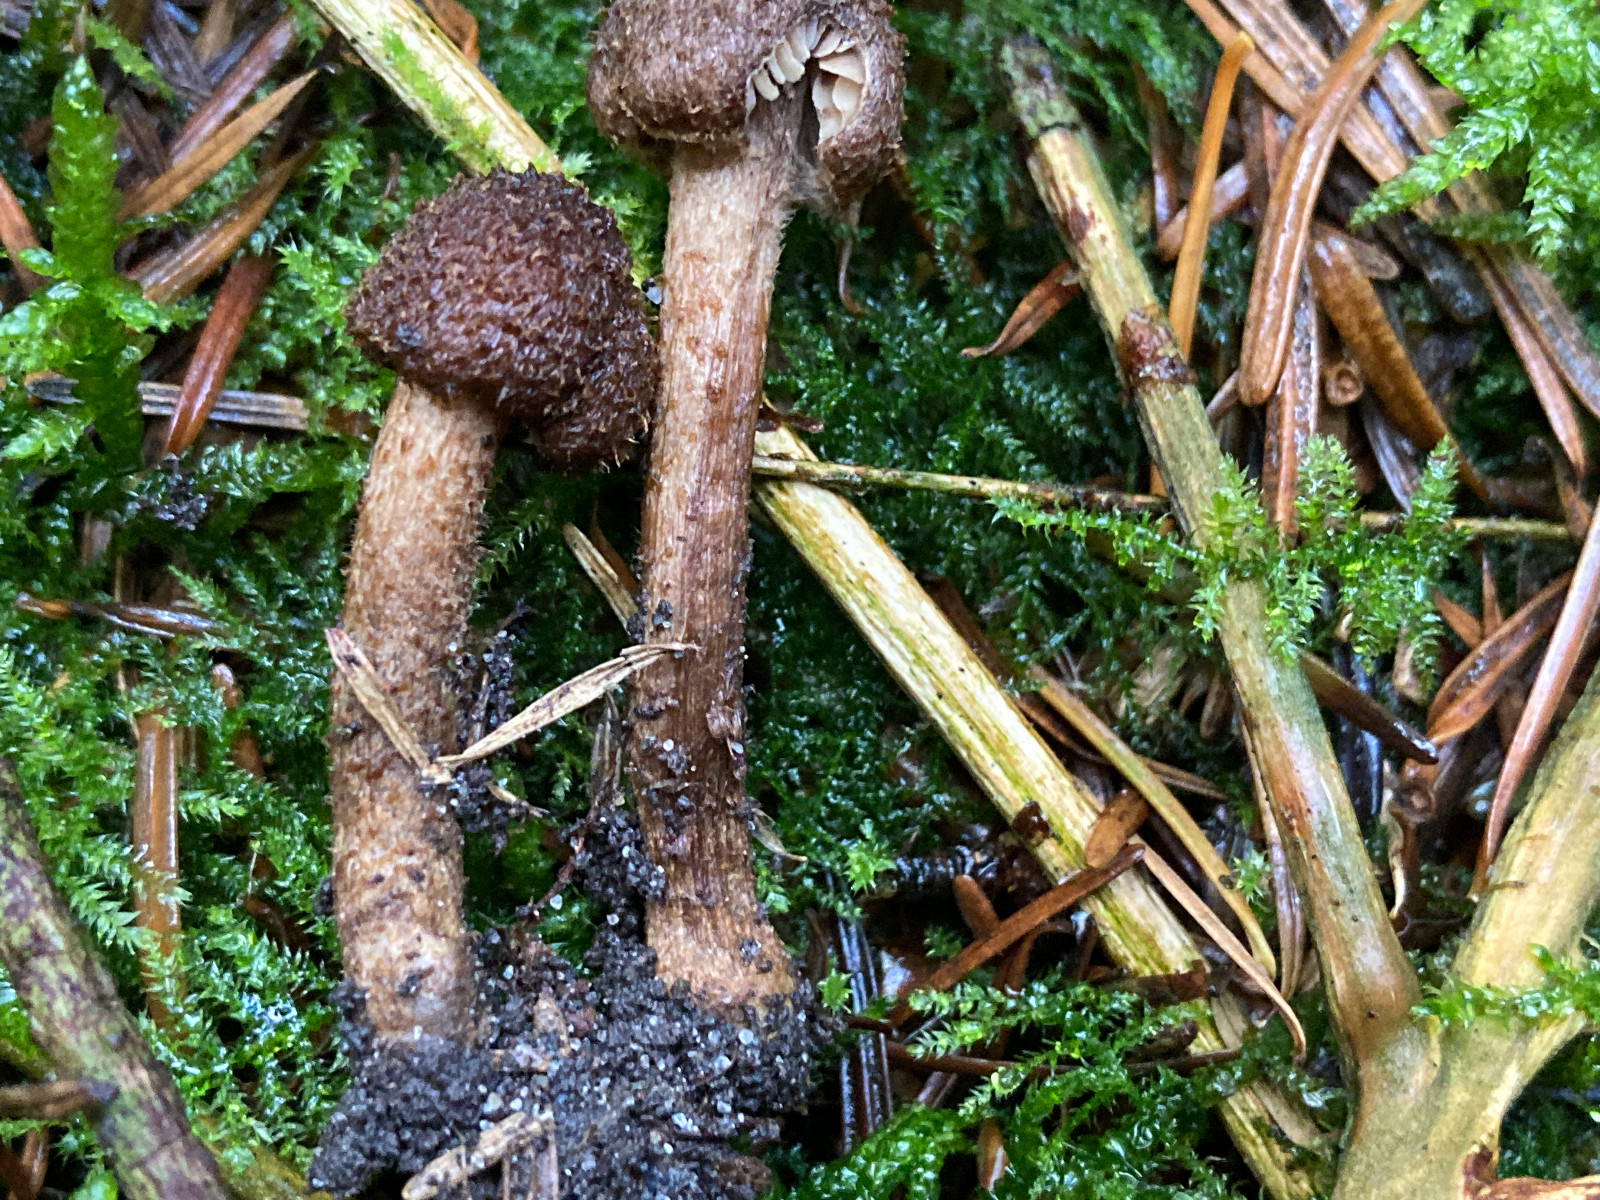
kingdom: Fungi
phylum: Basidiomycota
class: Agaricomycetes
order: Agaricales
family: Inocybaceae
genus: Inocybe
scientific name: Inocybe
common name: trævlhat
